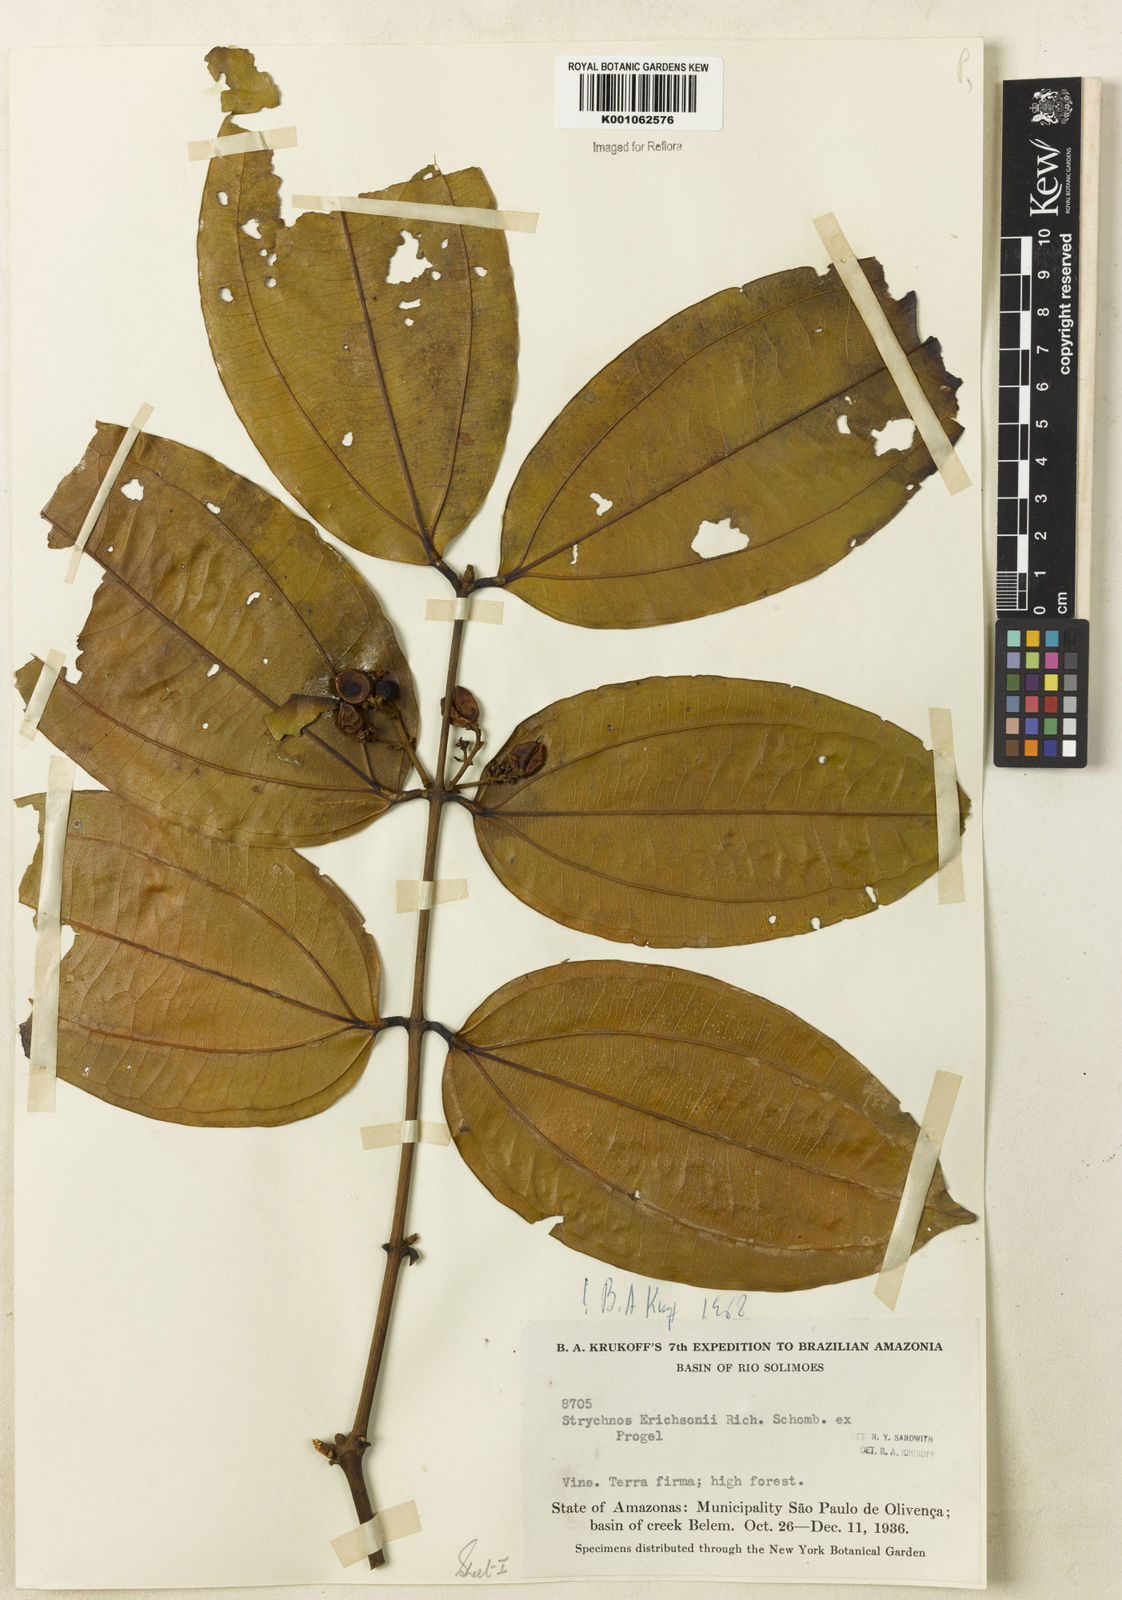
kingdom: Plantae
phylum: Tracheophyta
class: Magnoliopsida
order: Gentianales
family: Loganiaceae
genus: Strychnos
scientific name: Strychnos erichsonii
